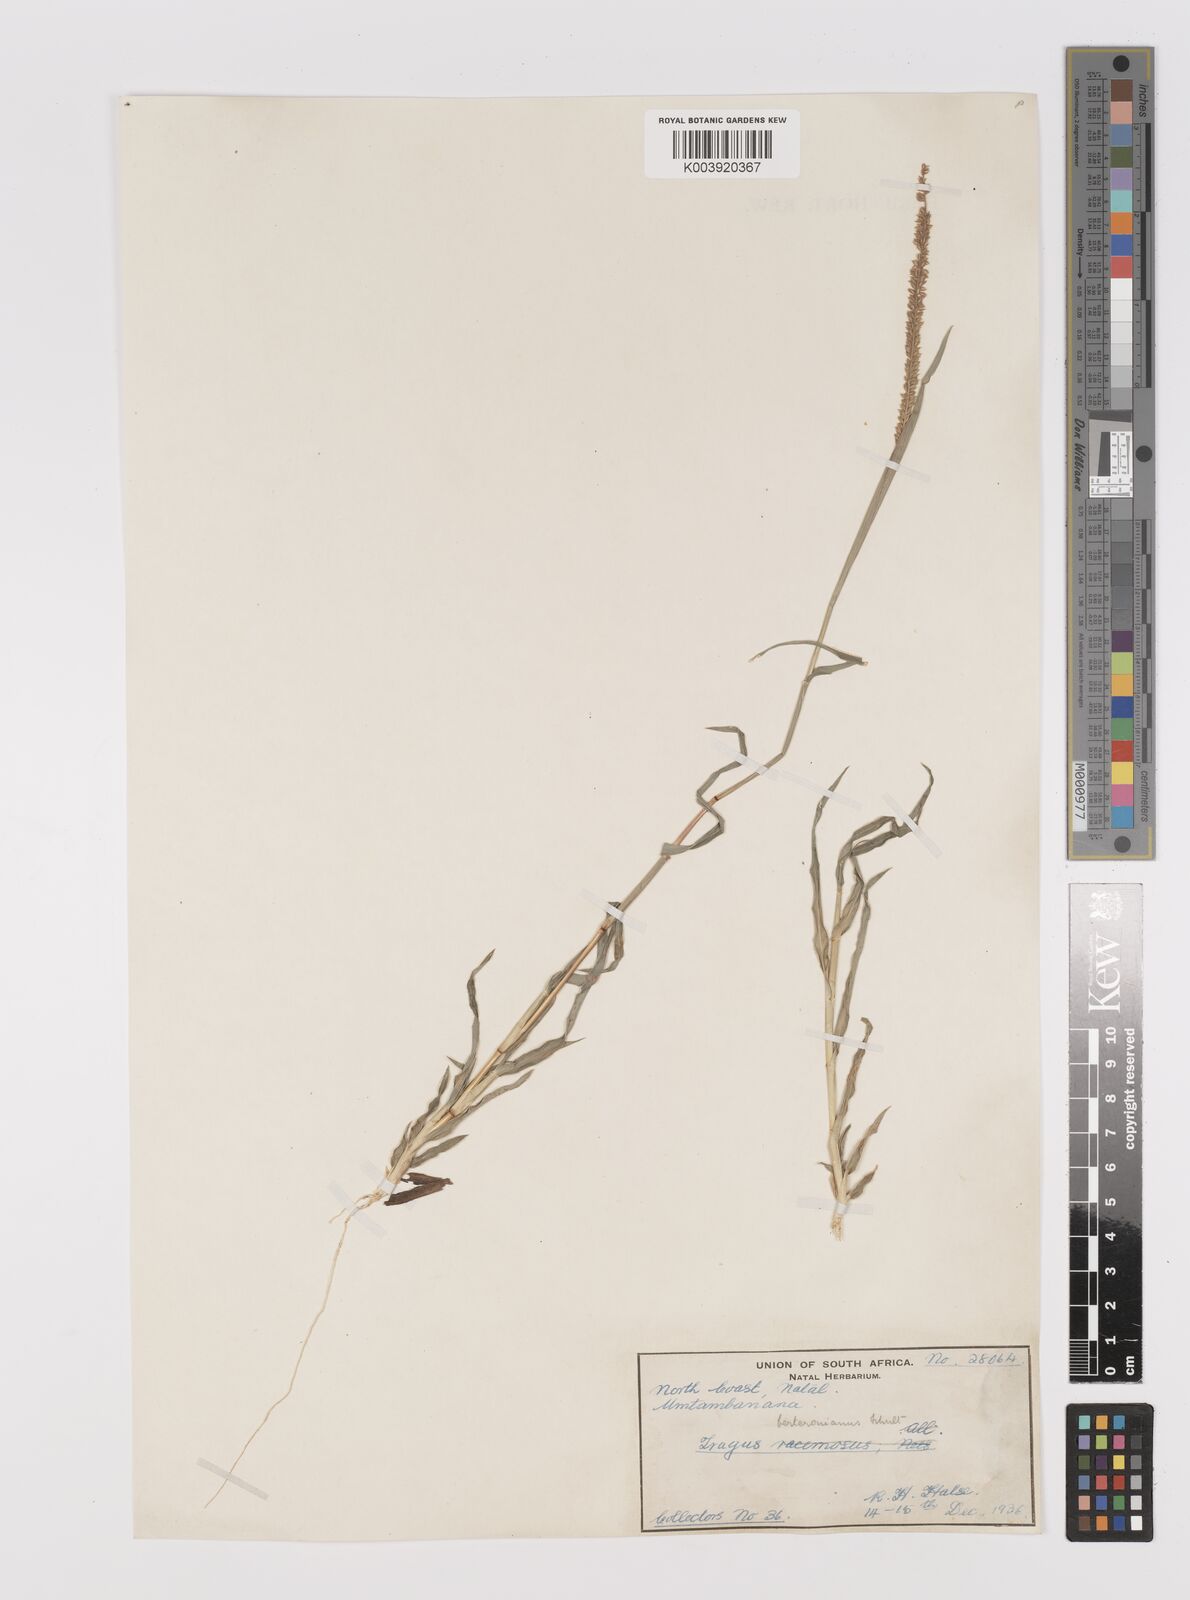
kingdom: Plantae
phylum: Tracheophyta
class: Liliopsida
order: Poales
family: Poaceae
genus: Tragus
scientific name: Tragus berteronianus
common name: African bur-grass
